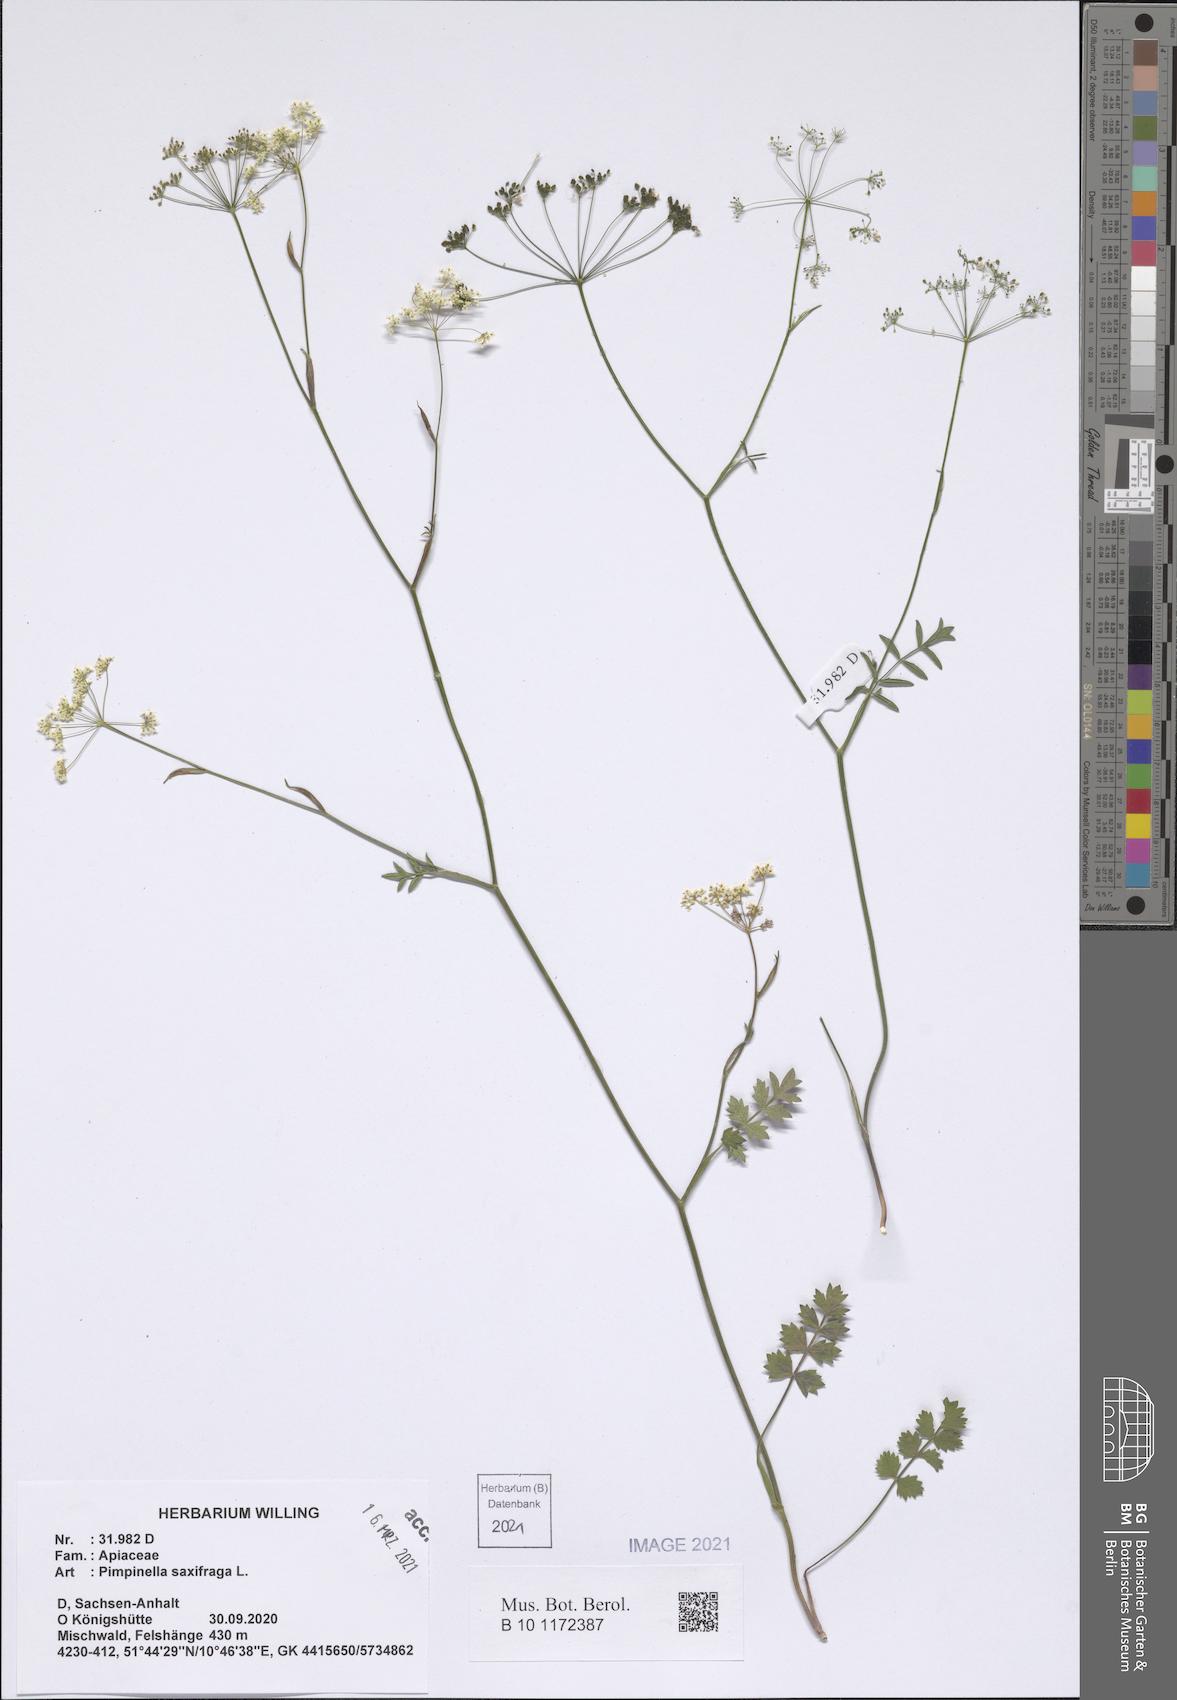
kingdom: Plantae
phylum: Tracheophyta
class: Magnoliopsida
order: Apiales
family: Apiaceae
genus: Pimpinella
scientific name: Pimpinella saxifraga
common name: Burnet-saxifrage
